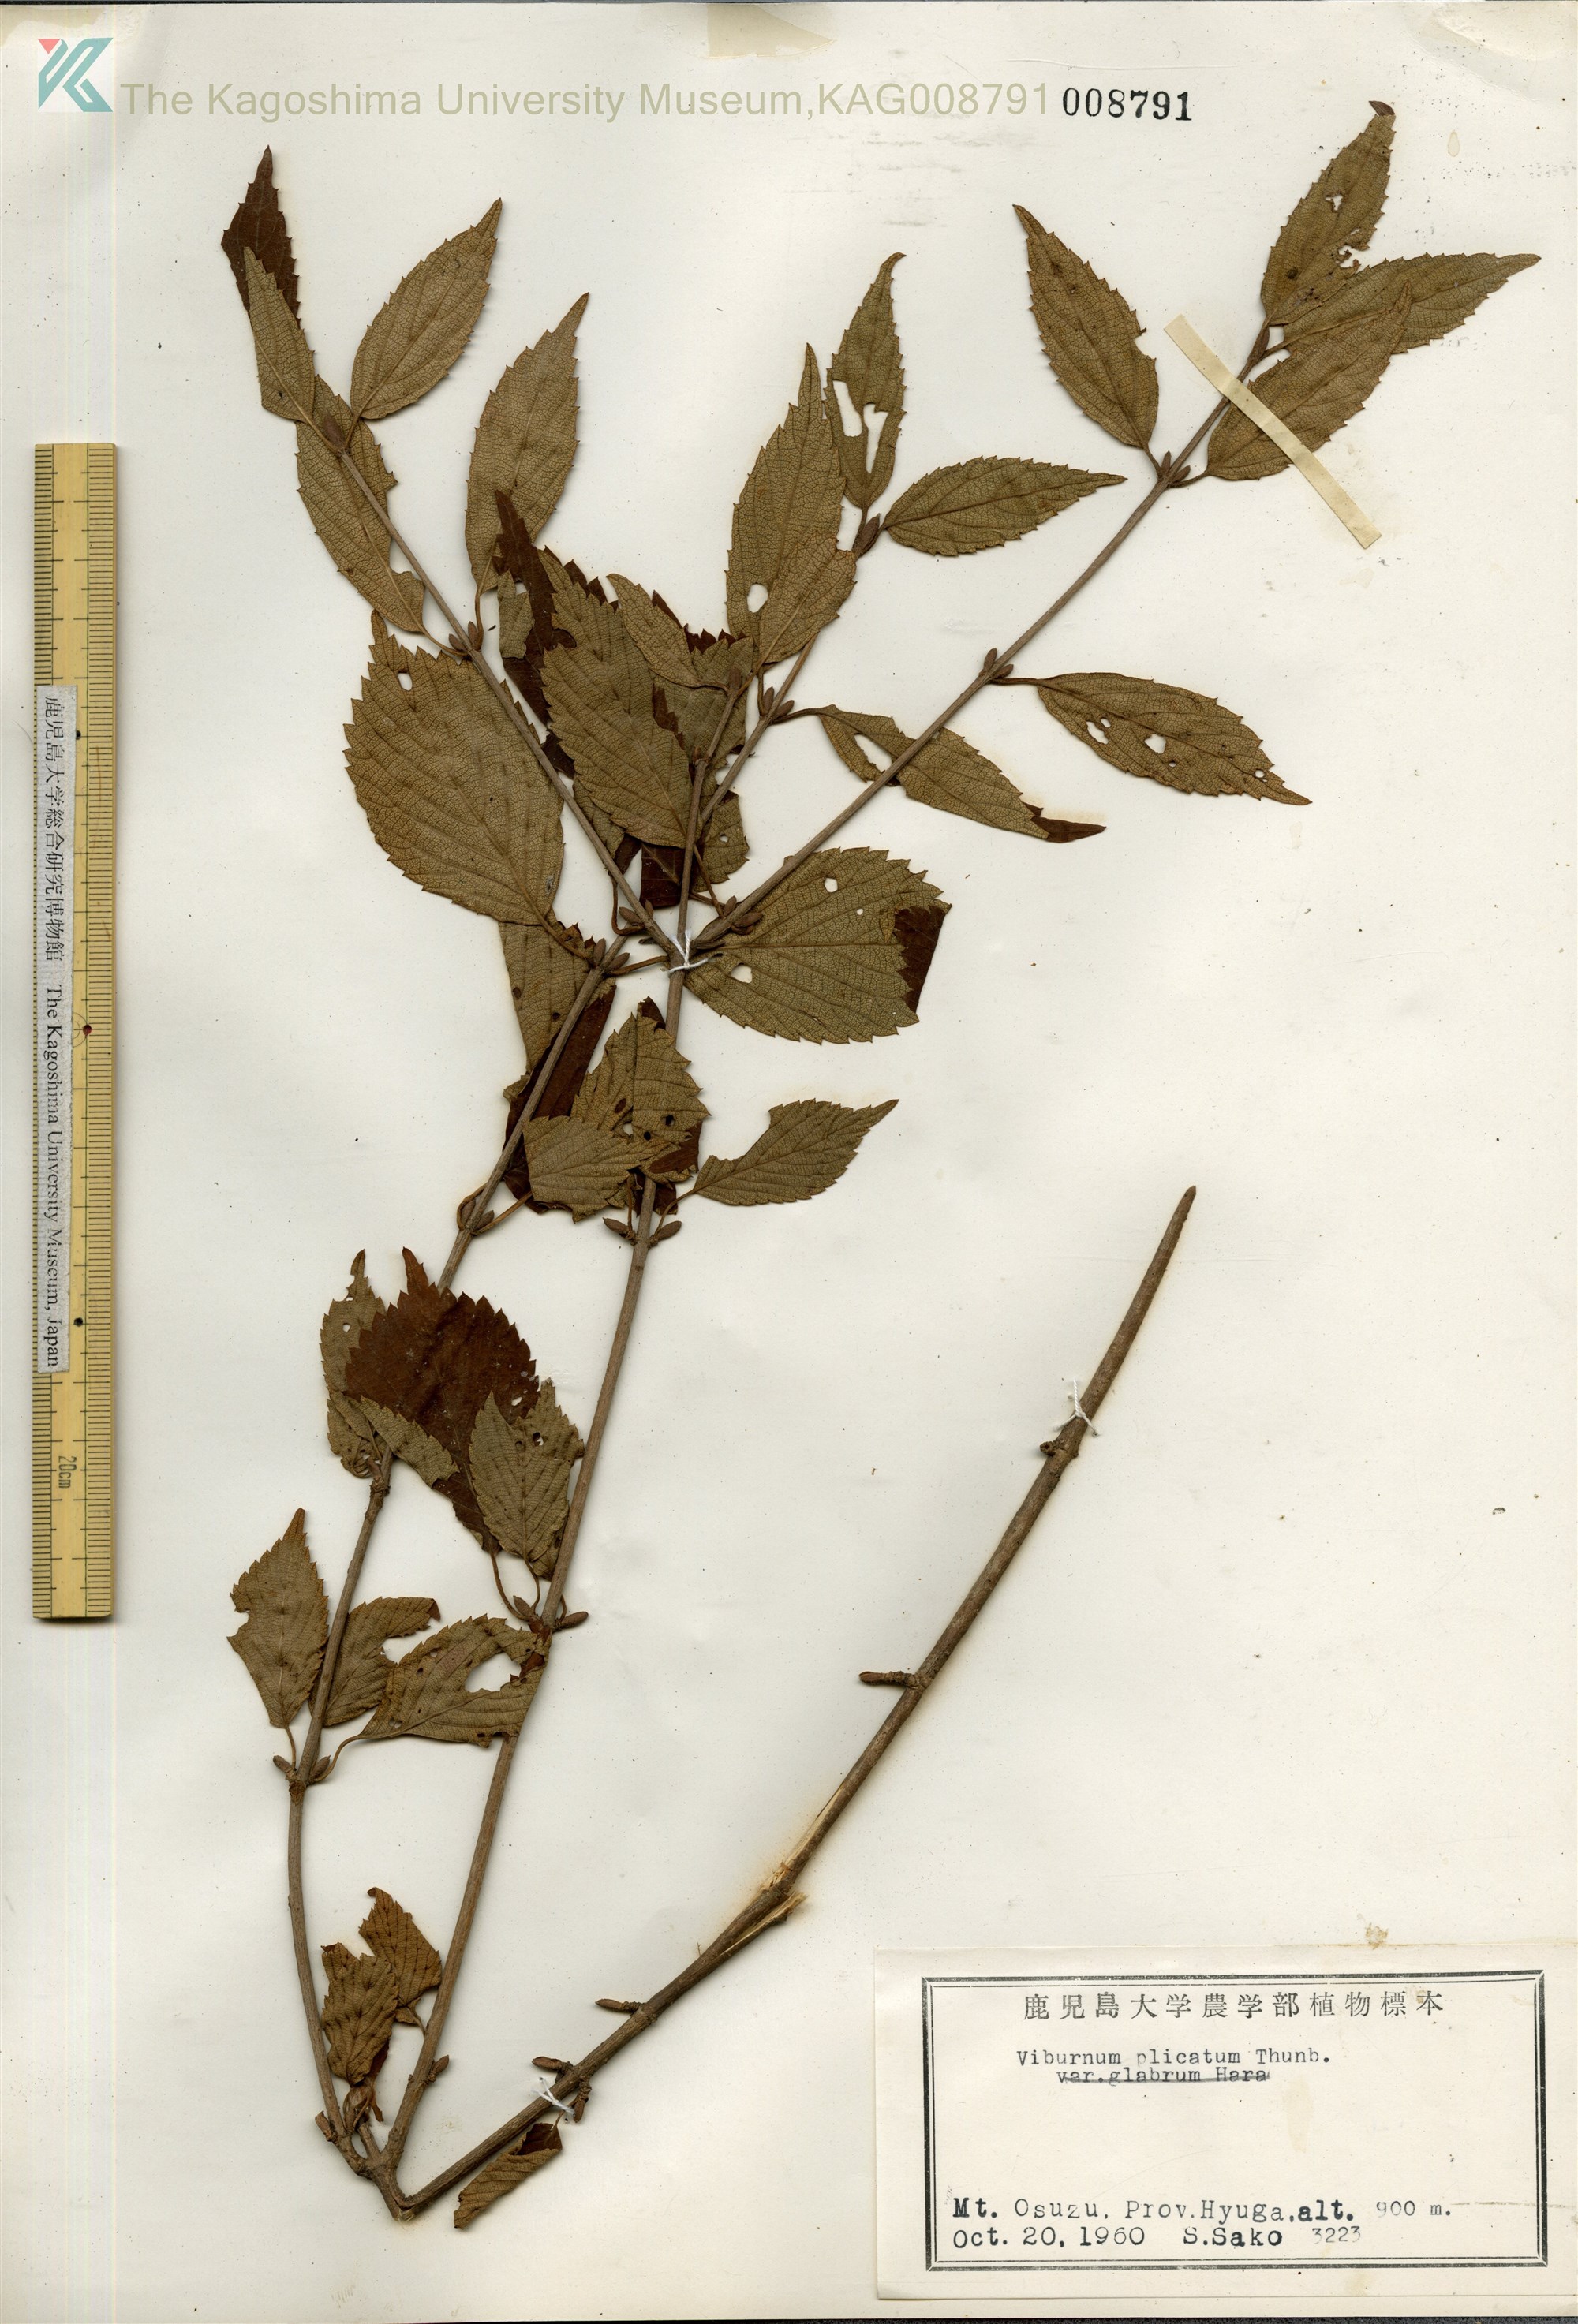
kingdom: Plantae
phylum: Tracheophyta
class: Magnoliopsida
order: Dipsacales
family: Viburnaceae
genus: Viburnum
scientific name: Viburnum plicatum
